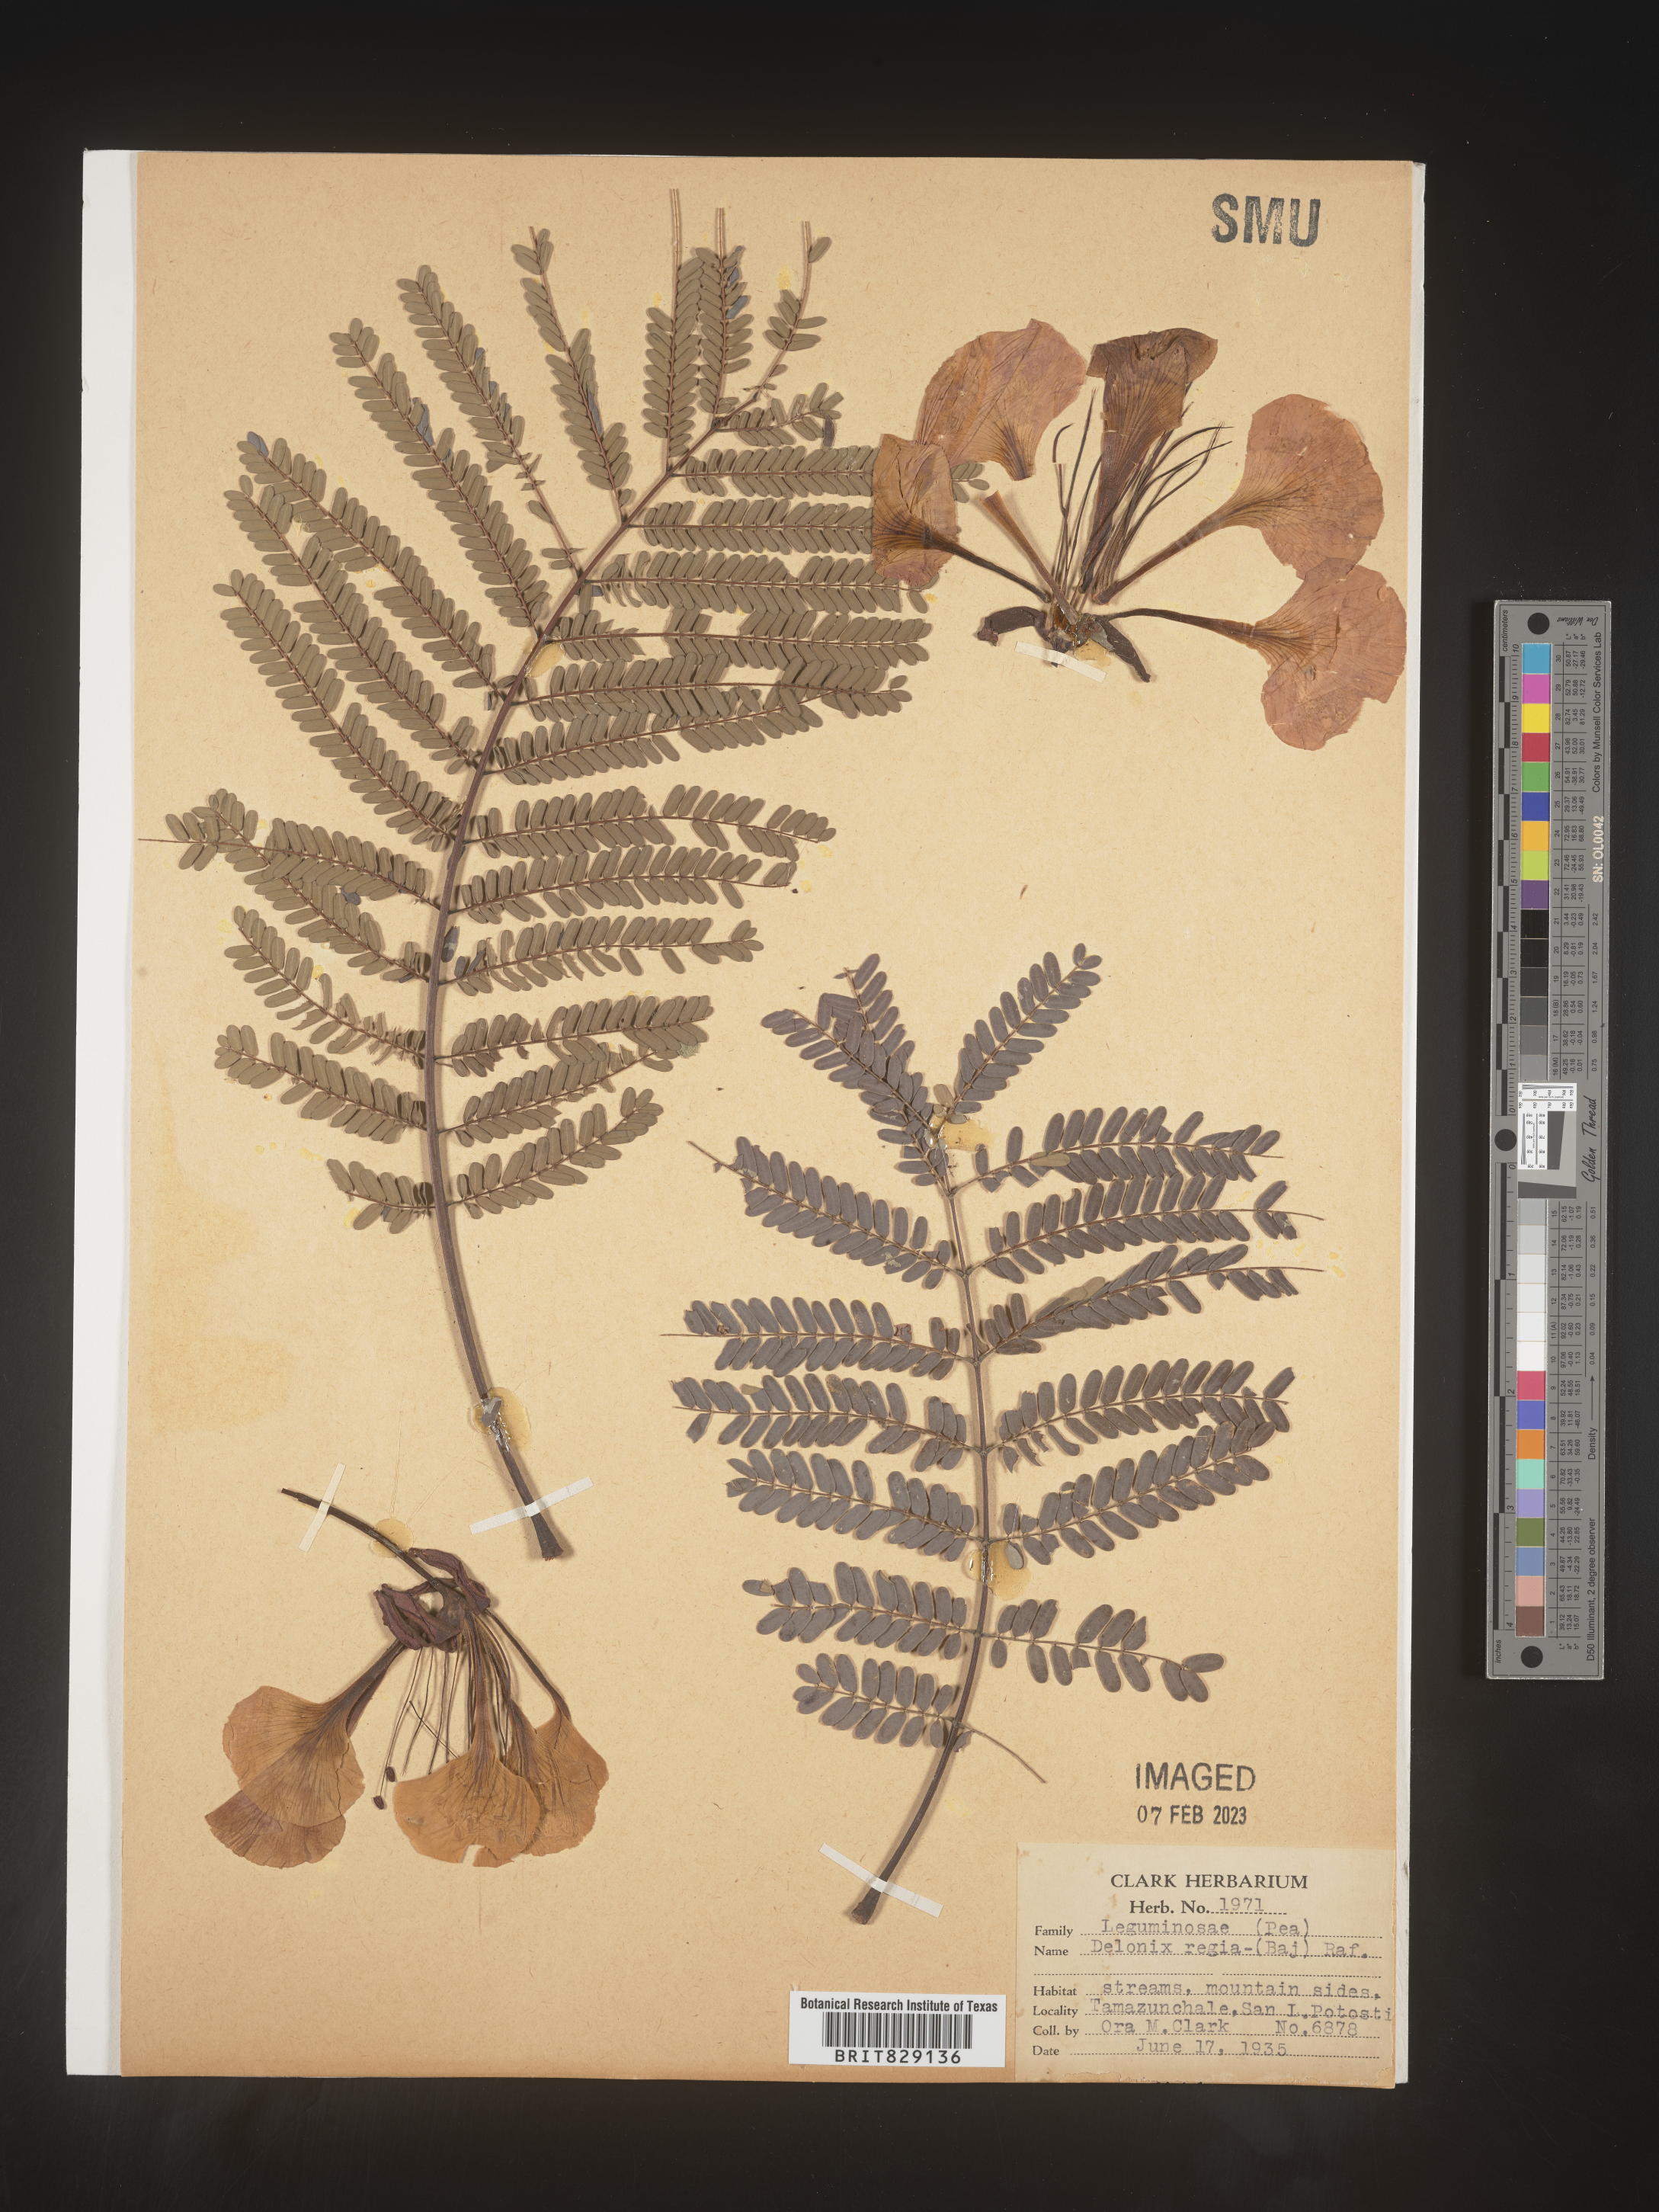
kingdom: Plantae
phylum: Tracheophyta
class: Magnoliopsida
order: Fabales
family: Fabaceae
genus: Caesalpinia
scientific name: Caesalpinia
